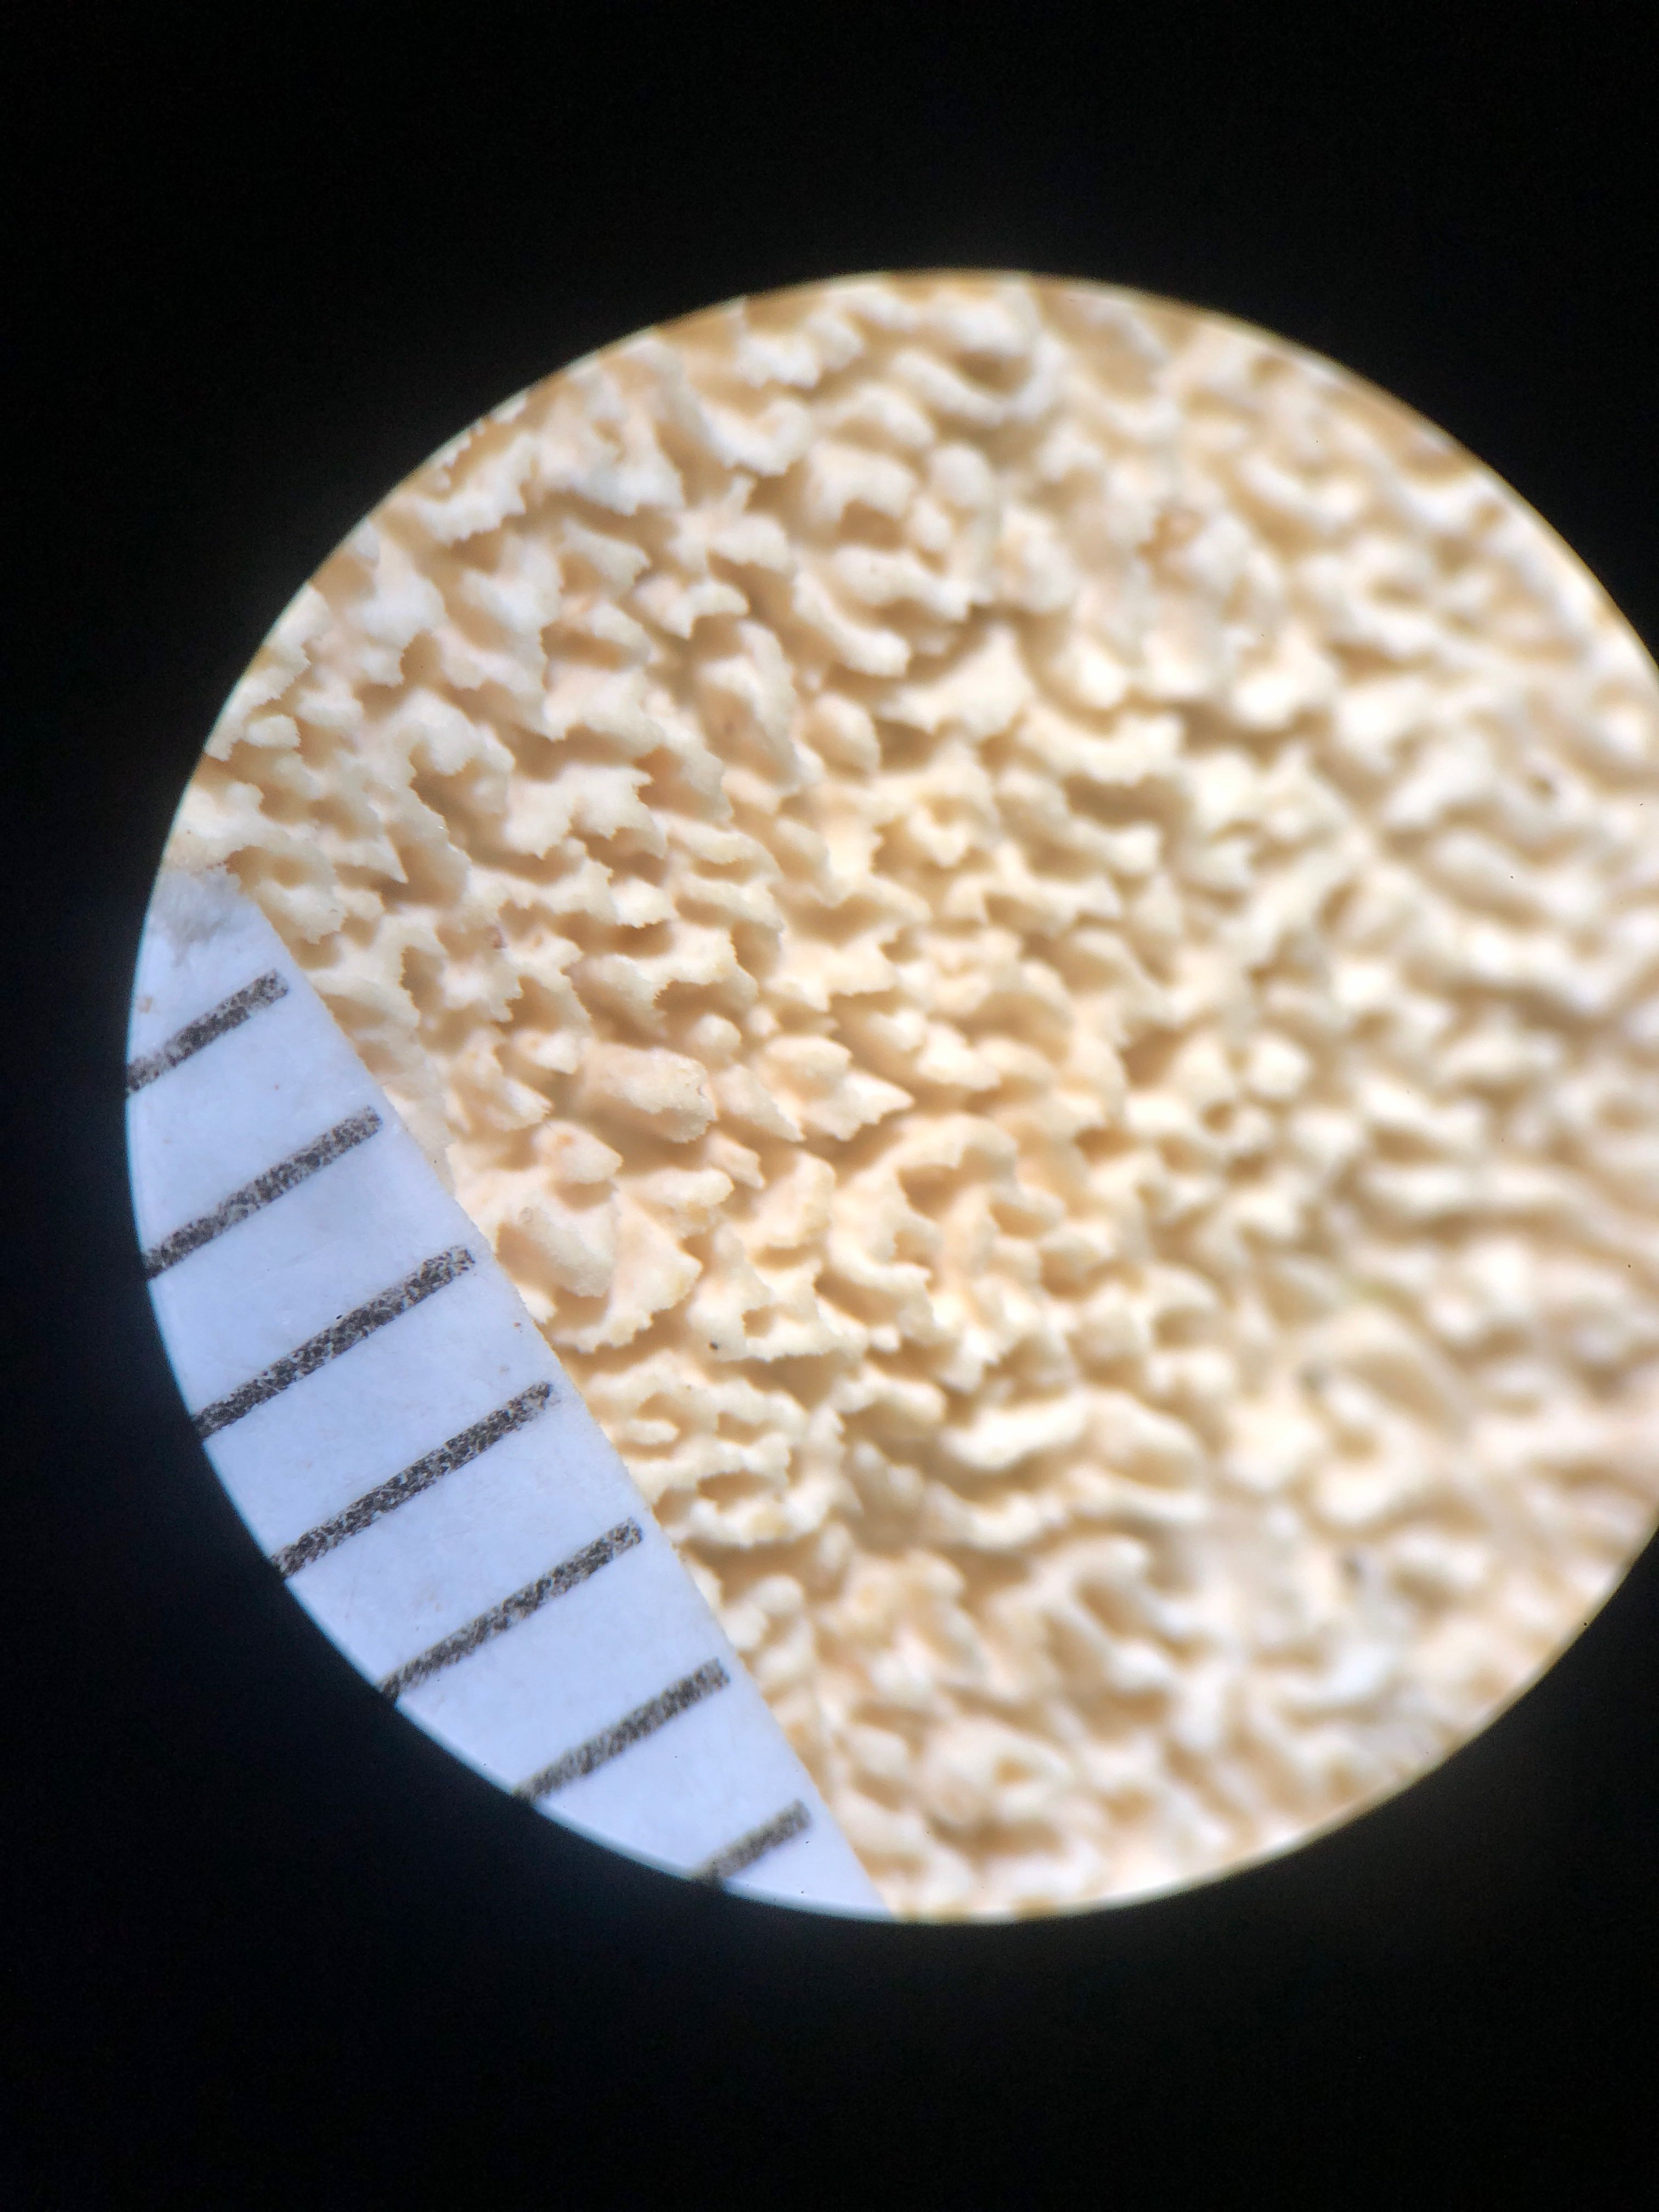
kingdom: Fungi
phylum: Basidiomycota
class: Agaricomycetes
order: Hymenochaetales
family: Schizoporaceae
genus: Xylodon
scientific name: Xylodon subtropicus
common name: labyrint-tandsvamp
